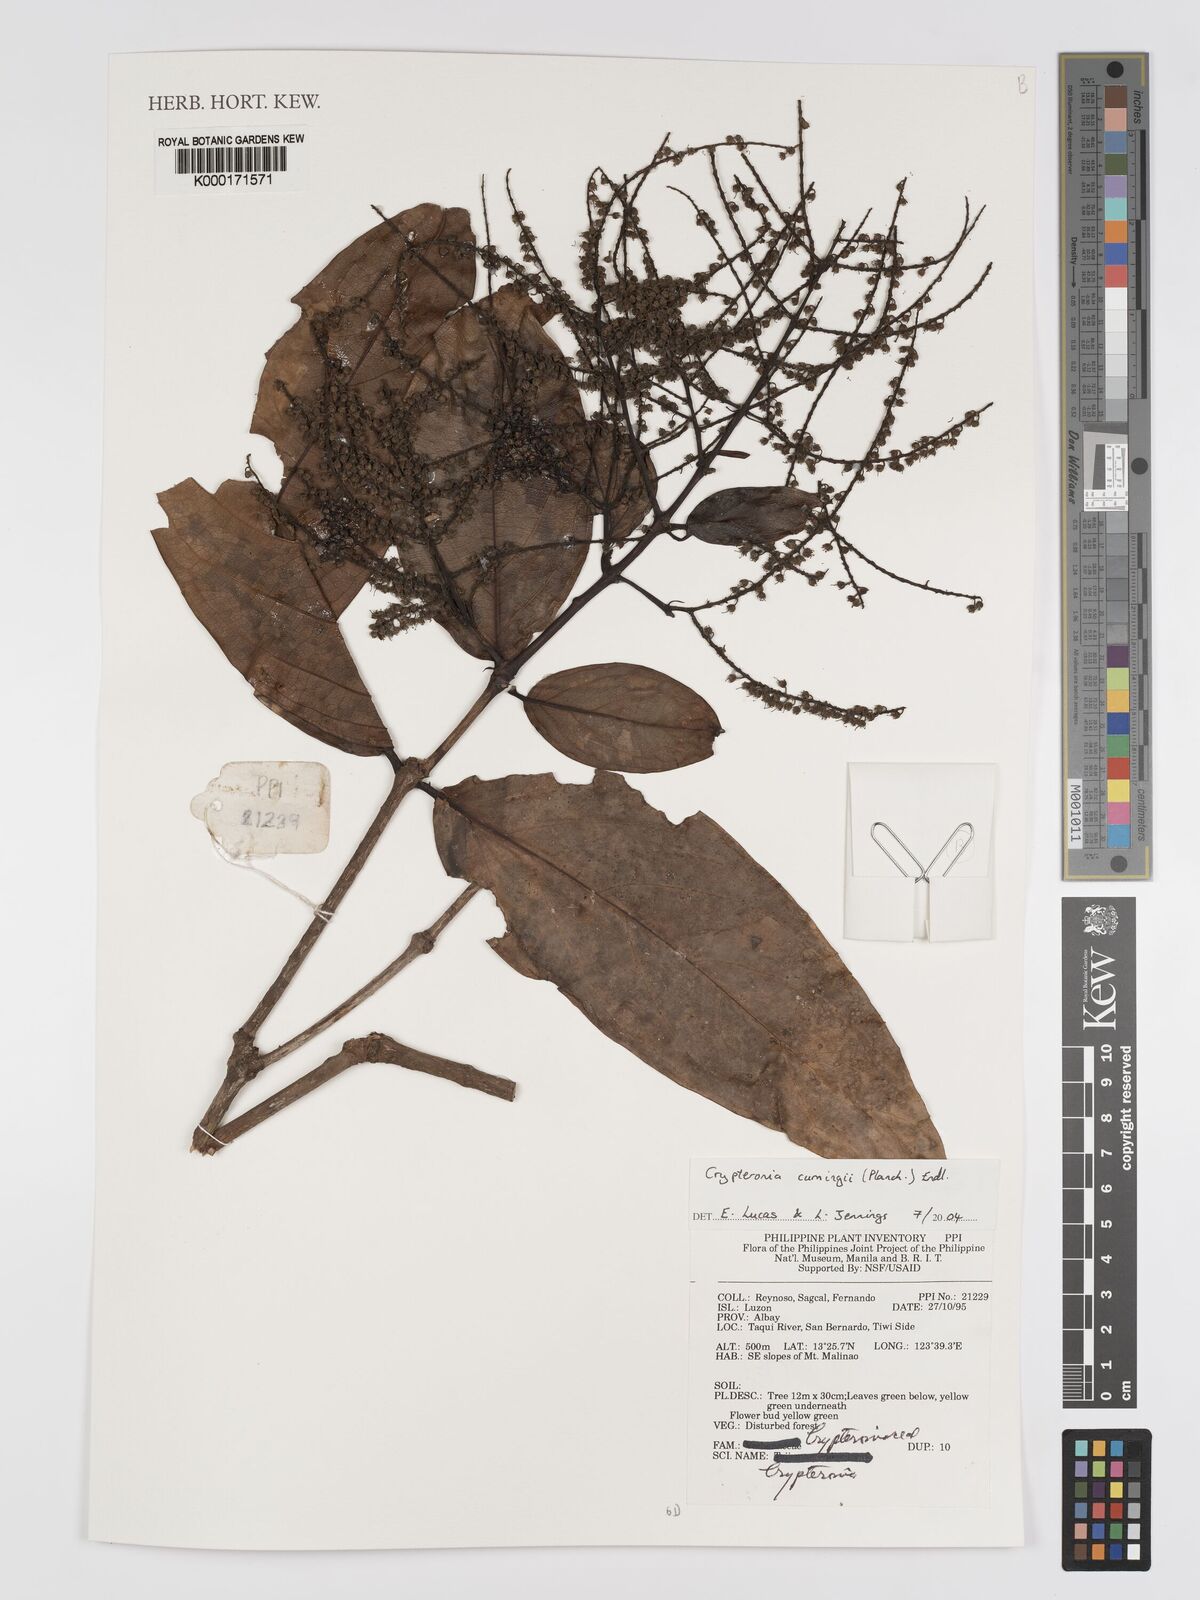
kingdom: Plantae
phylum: Tracheophyta
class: Magnoliopsida
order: Myrtales
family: Crypteroniaceae
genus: Crypteronia
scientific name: Crypteronia cumingii
